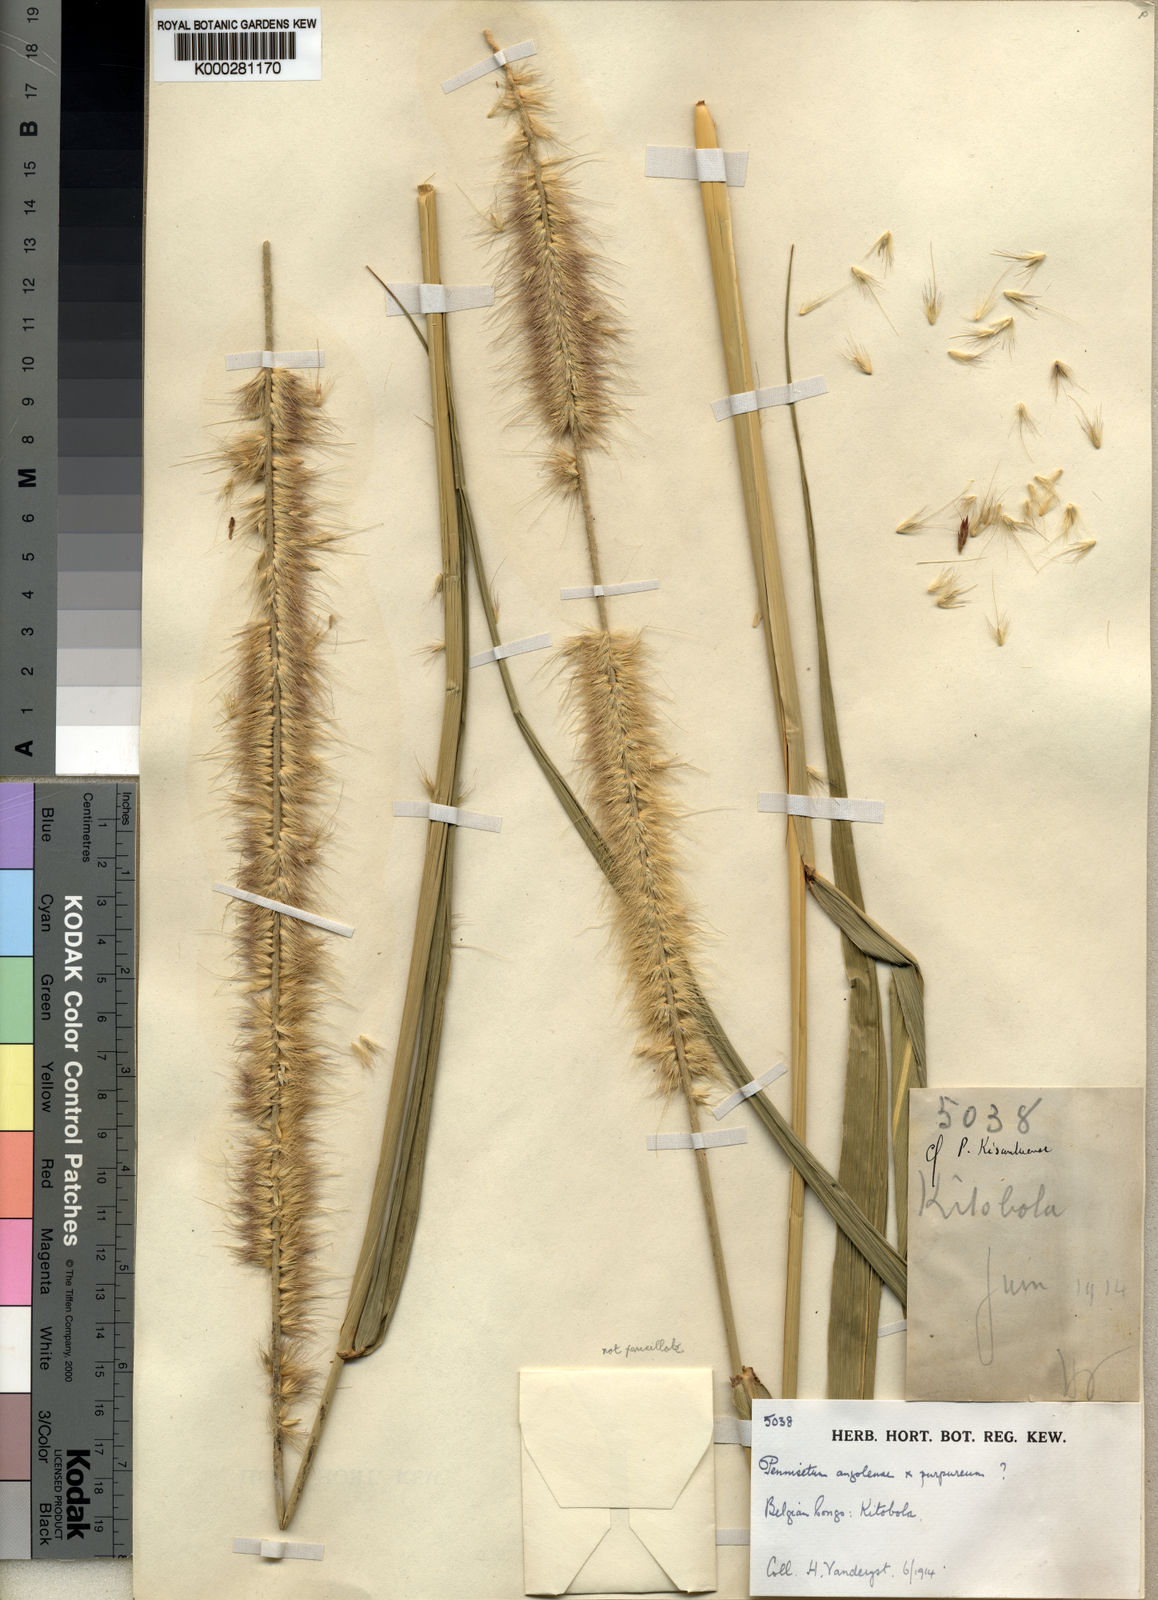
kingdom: Plantae
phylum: Tracheophyta
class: Liliopsida
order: Poales
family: Poaceae
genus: Cenchrus
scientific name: Cenchrus caudatus
